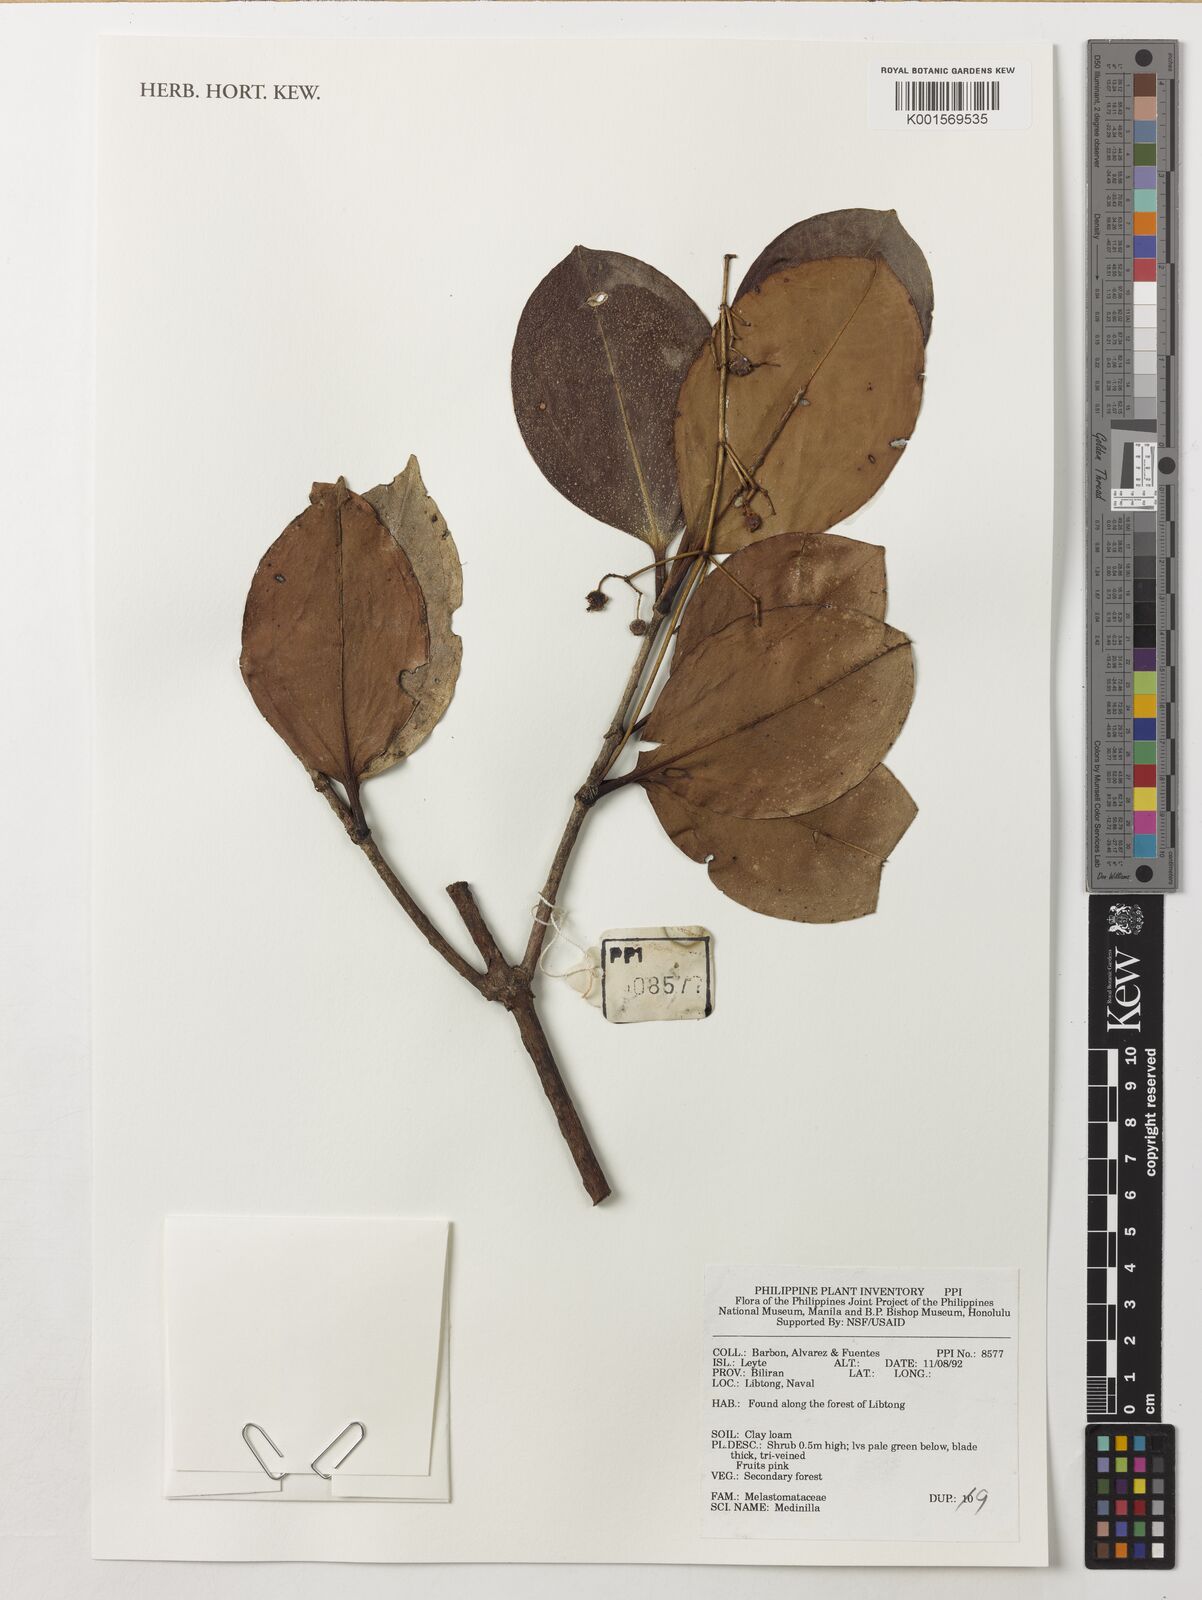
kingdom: Plantae
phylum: Tracheophyta
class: Magnoliopsida
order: Myrtales
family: Melastomataceae
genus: Medinilla
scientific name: Medinilla
